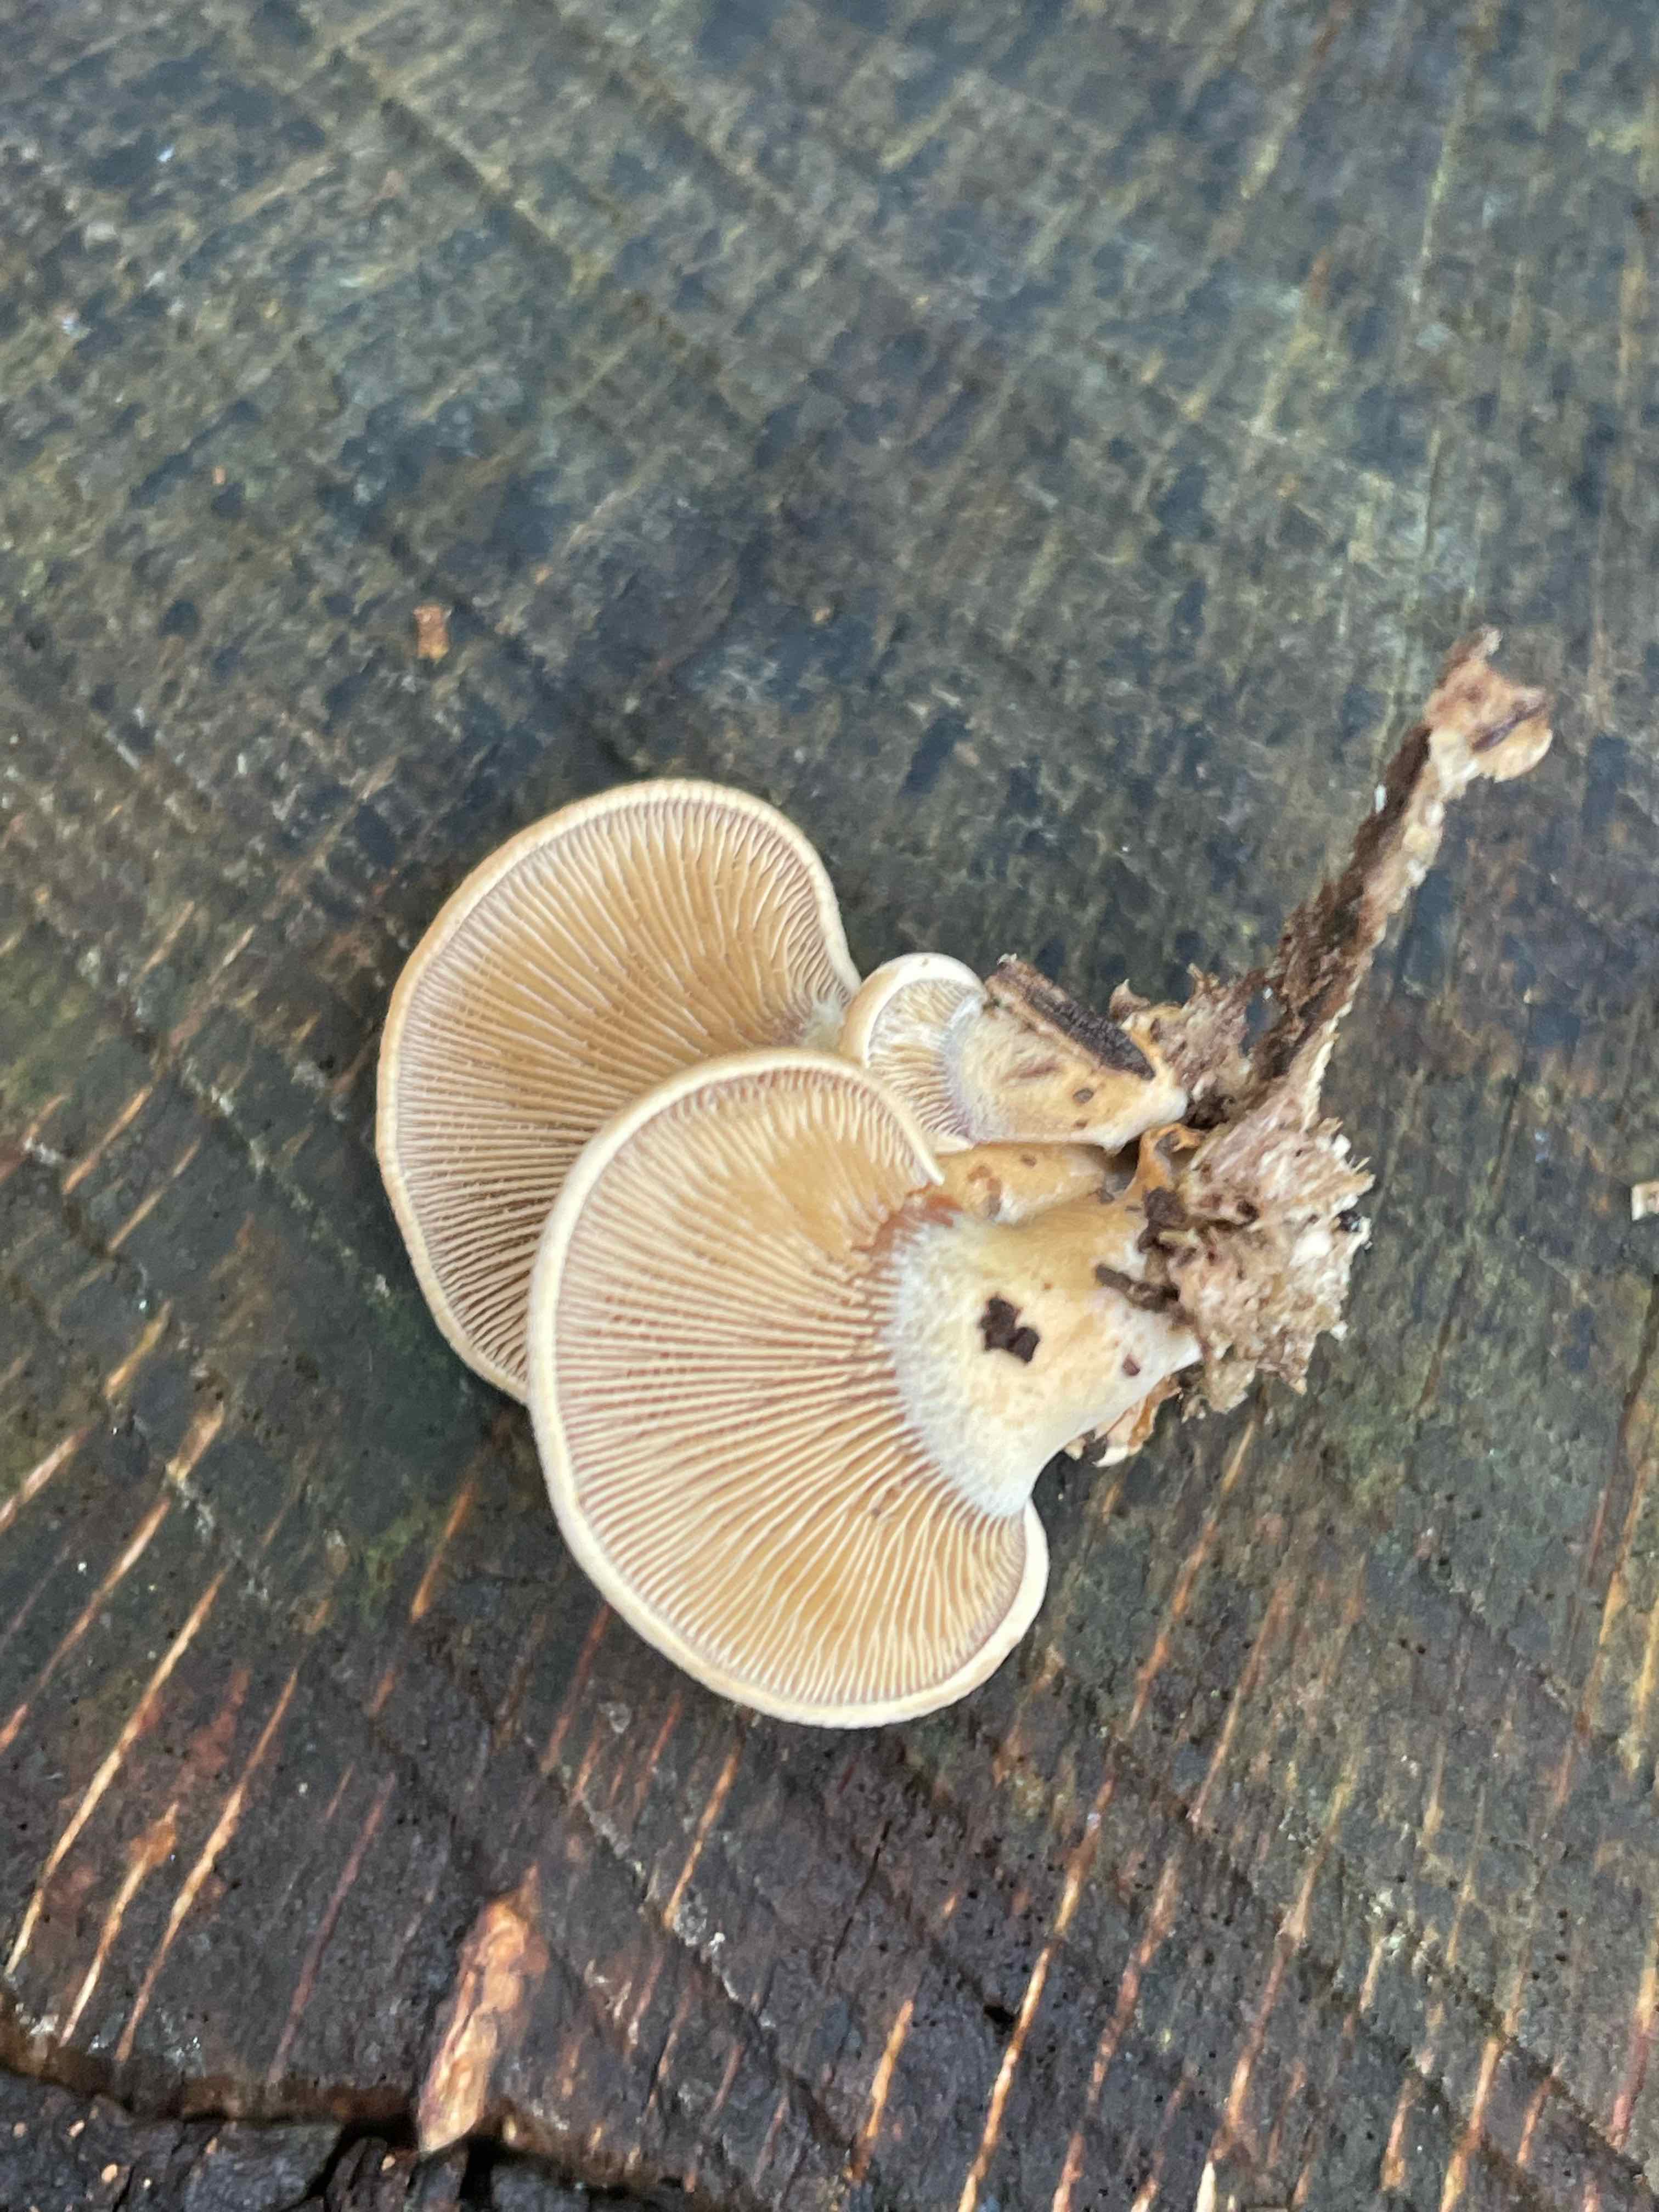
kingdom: Fungi
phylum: Basidiomycota
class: Agaricomycetes
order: Agaricales
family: Mycenaceae
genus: Panellus
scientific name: Panellus stipticus
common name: kliddet epaulethat
